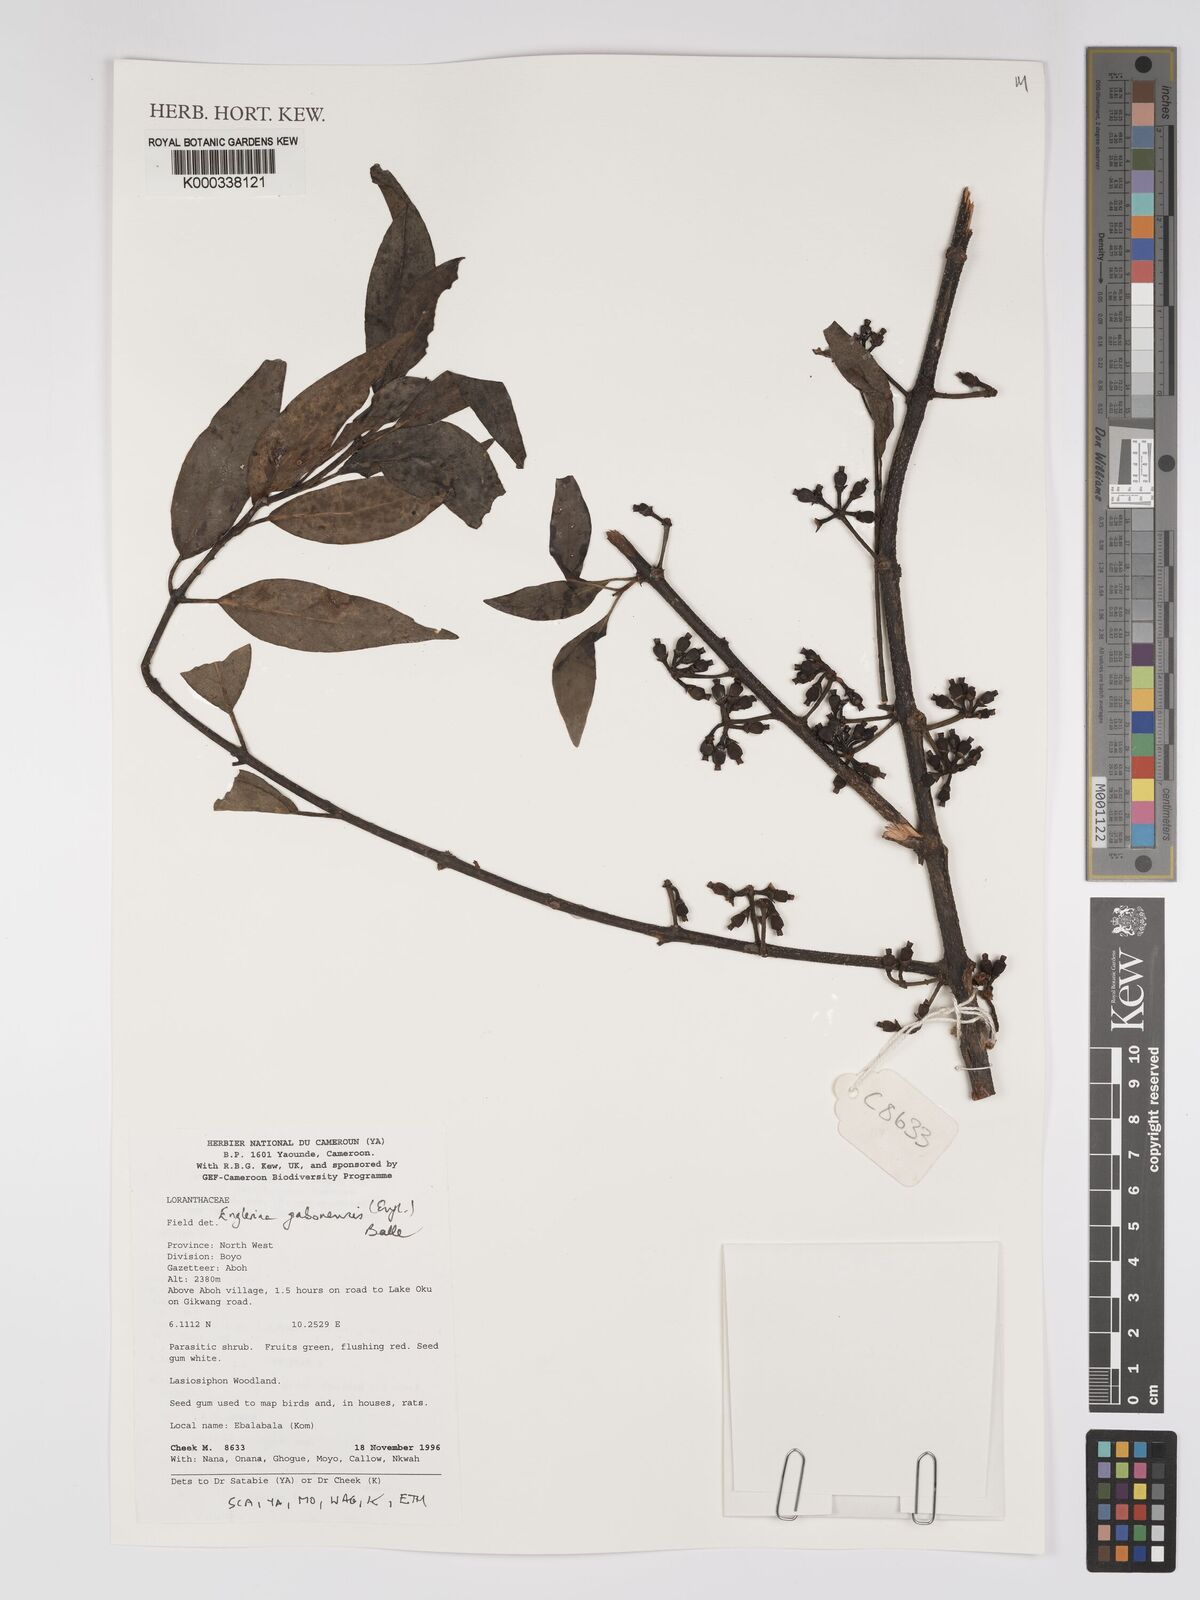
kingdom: Plantae
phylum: Tracheophyta
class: Magnoliopsida
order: Santalales
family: Loranthaceae
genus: Englerina
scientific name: Englerina gabonensis
